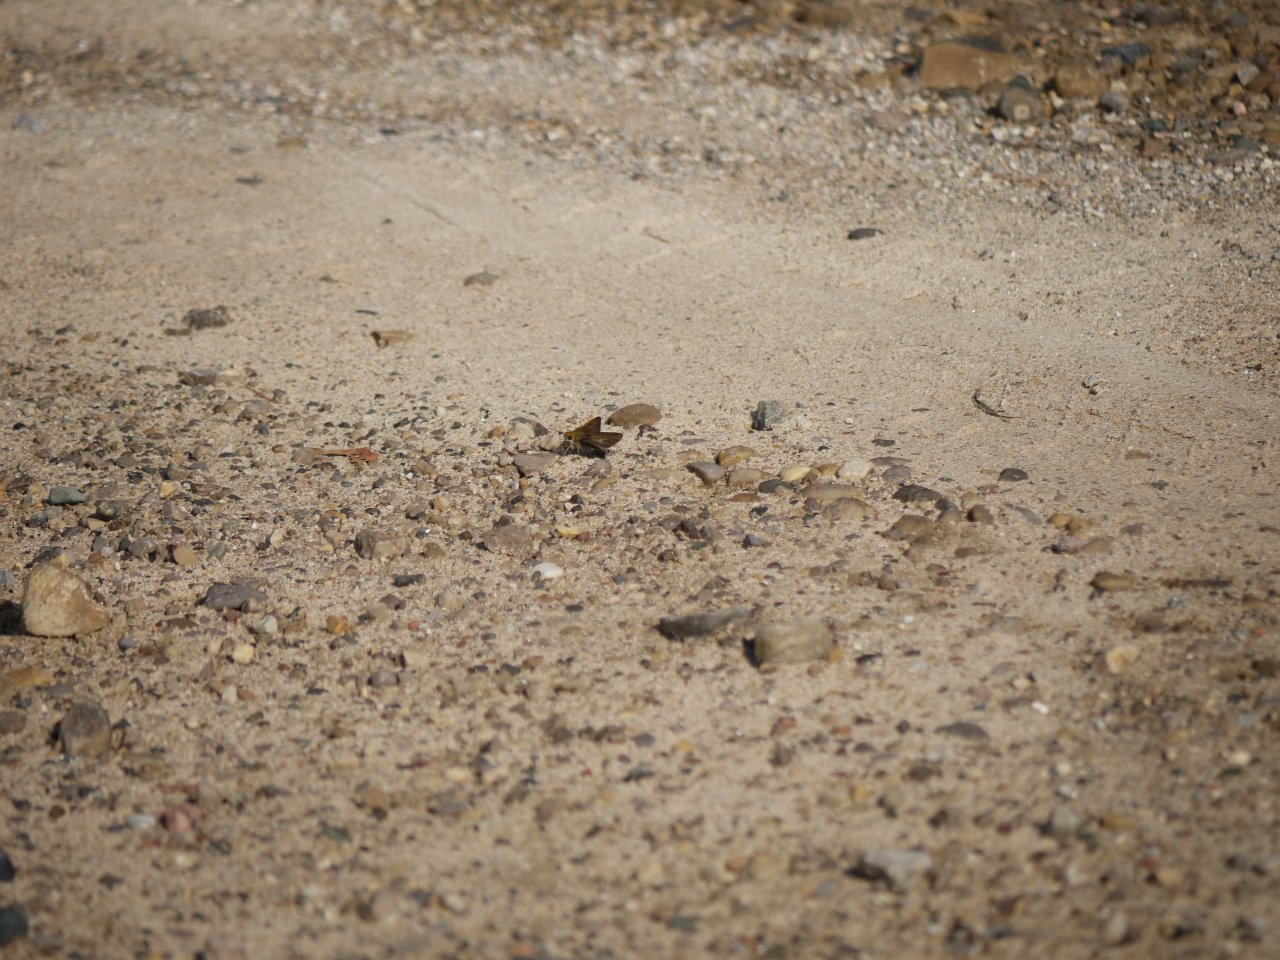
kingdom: Animalia
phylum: Arthropoda
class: Insecta
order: Lepidoptera
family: Hesperiidae
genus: Euphyes
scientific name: Euphyes vestris
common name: Dun Skipper
